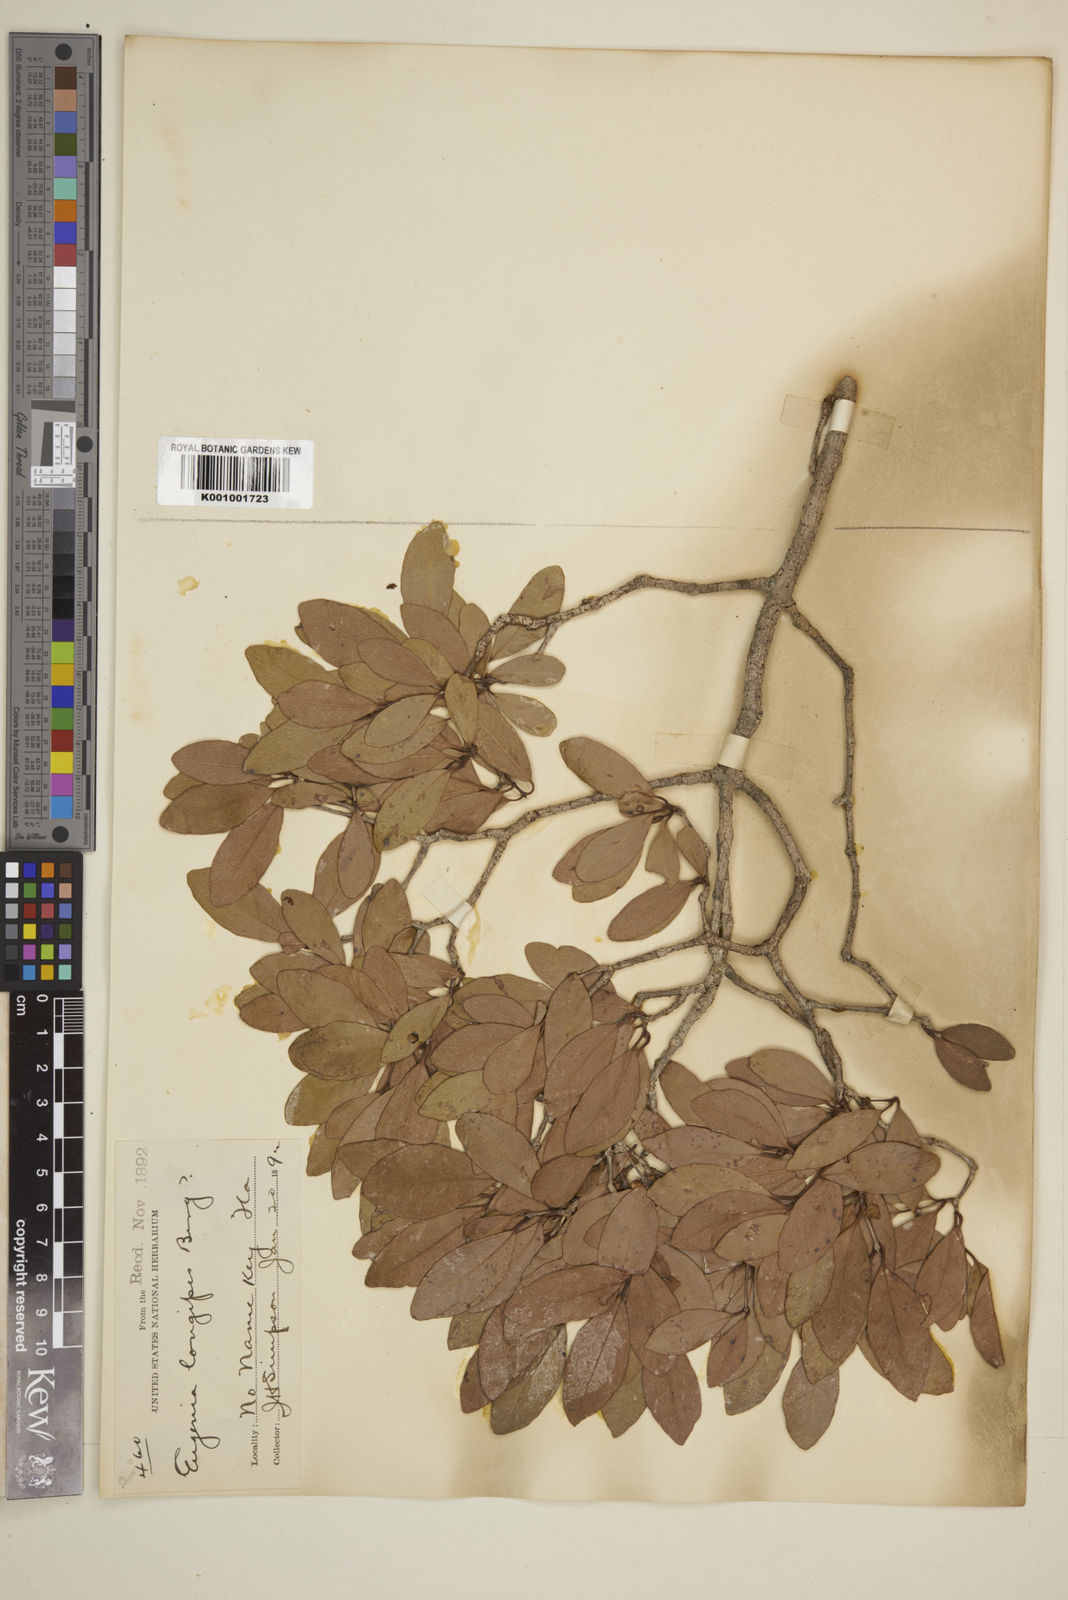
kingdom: Plantae
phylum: Tracheophyta
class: Magnoliopsida
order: Myrtales
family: Myrtaceae
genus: Mosiera
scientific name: Mosiera longipes
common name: Bahama stopper
